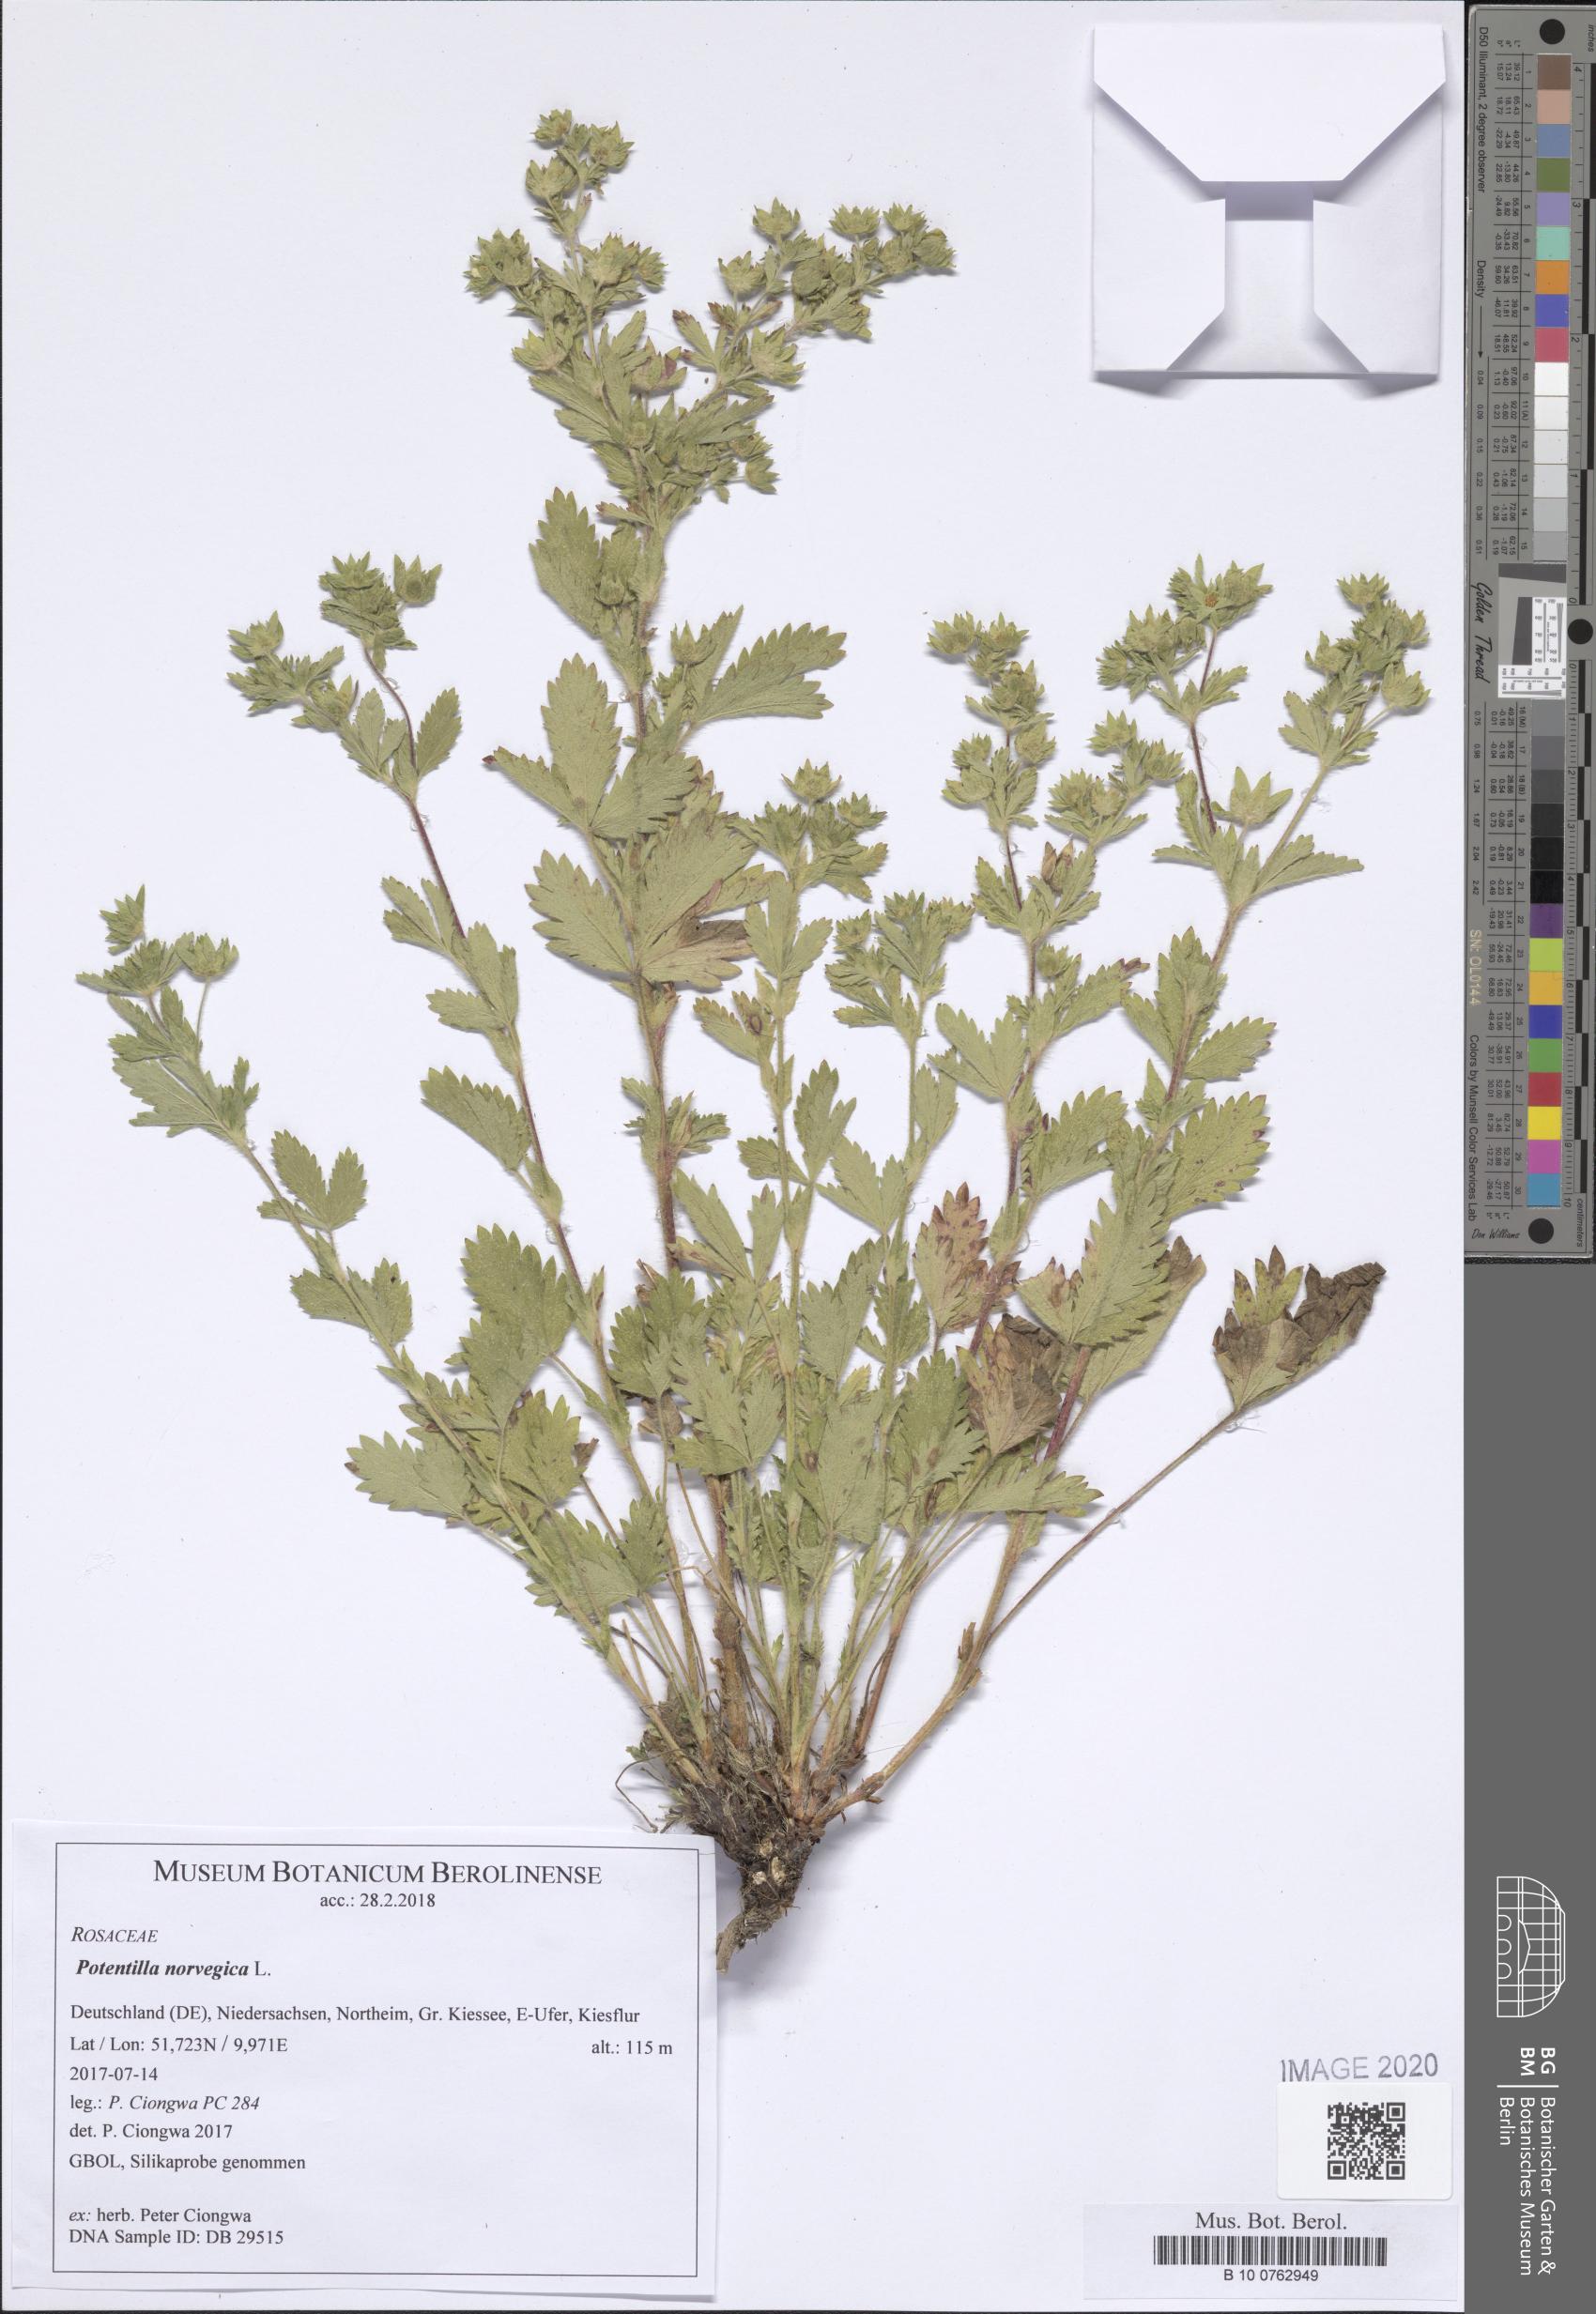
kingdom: Plantae
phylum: Tracheophyta
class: Magnoliopsida
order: Rosales
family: Rosaceae
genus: Potentilla
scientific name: Potentilla norvegica
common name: Ternate-leaved cinquefoil
